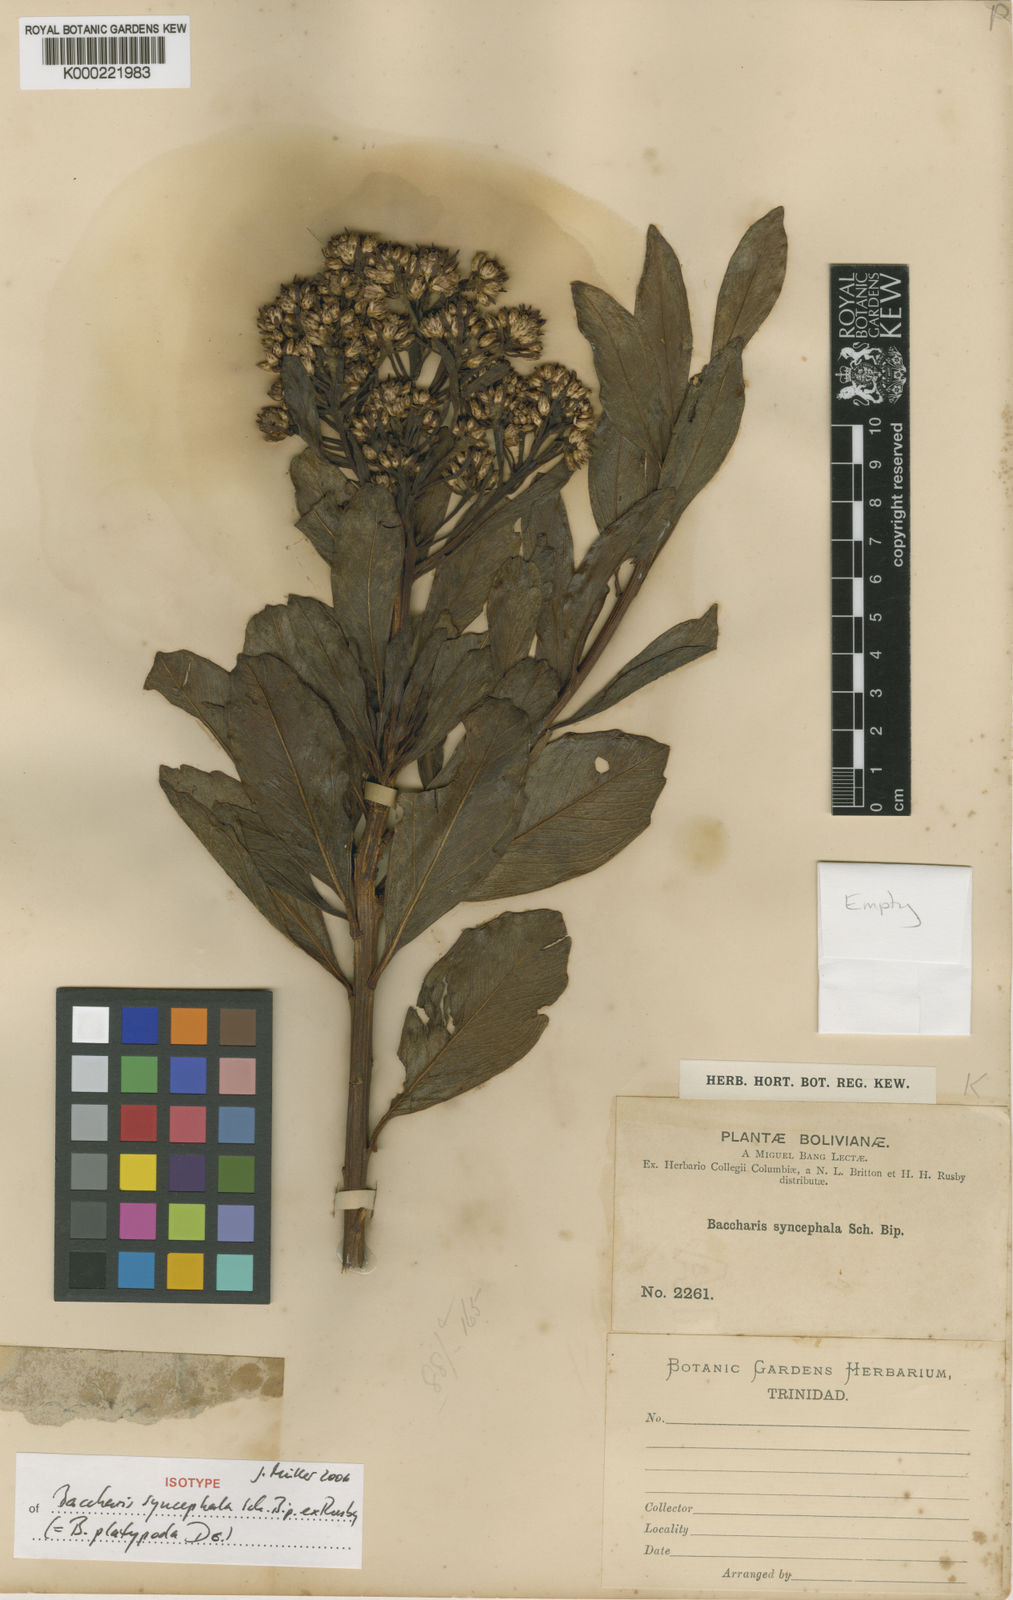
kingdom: Plantae
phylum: Tracheophyta
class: Magnoliopsida
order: Asterales
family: Asteraceae
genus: Baccharis
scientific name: Baccharis platypoda
